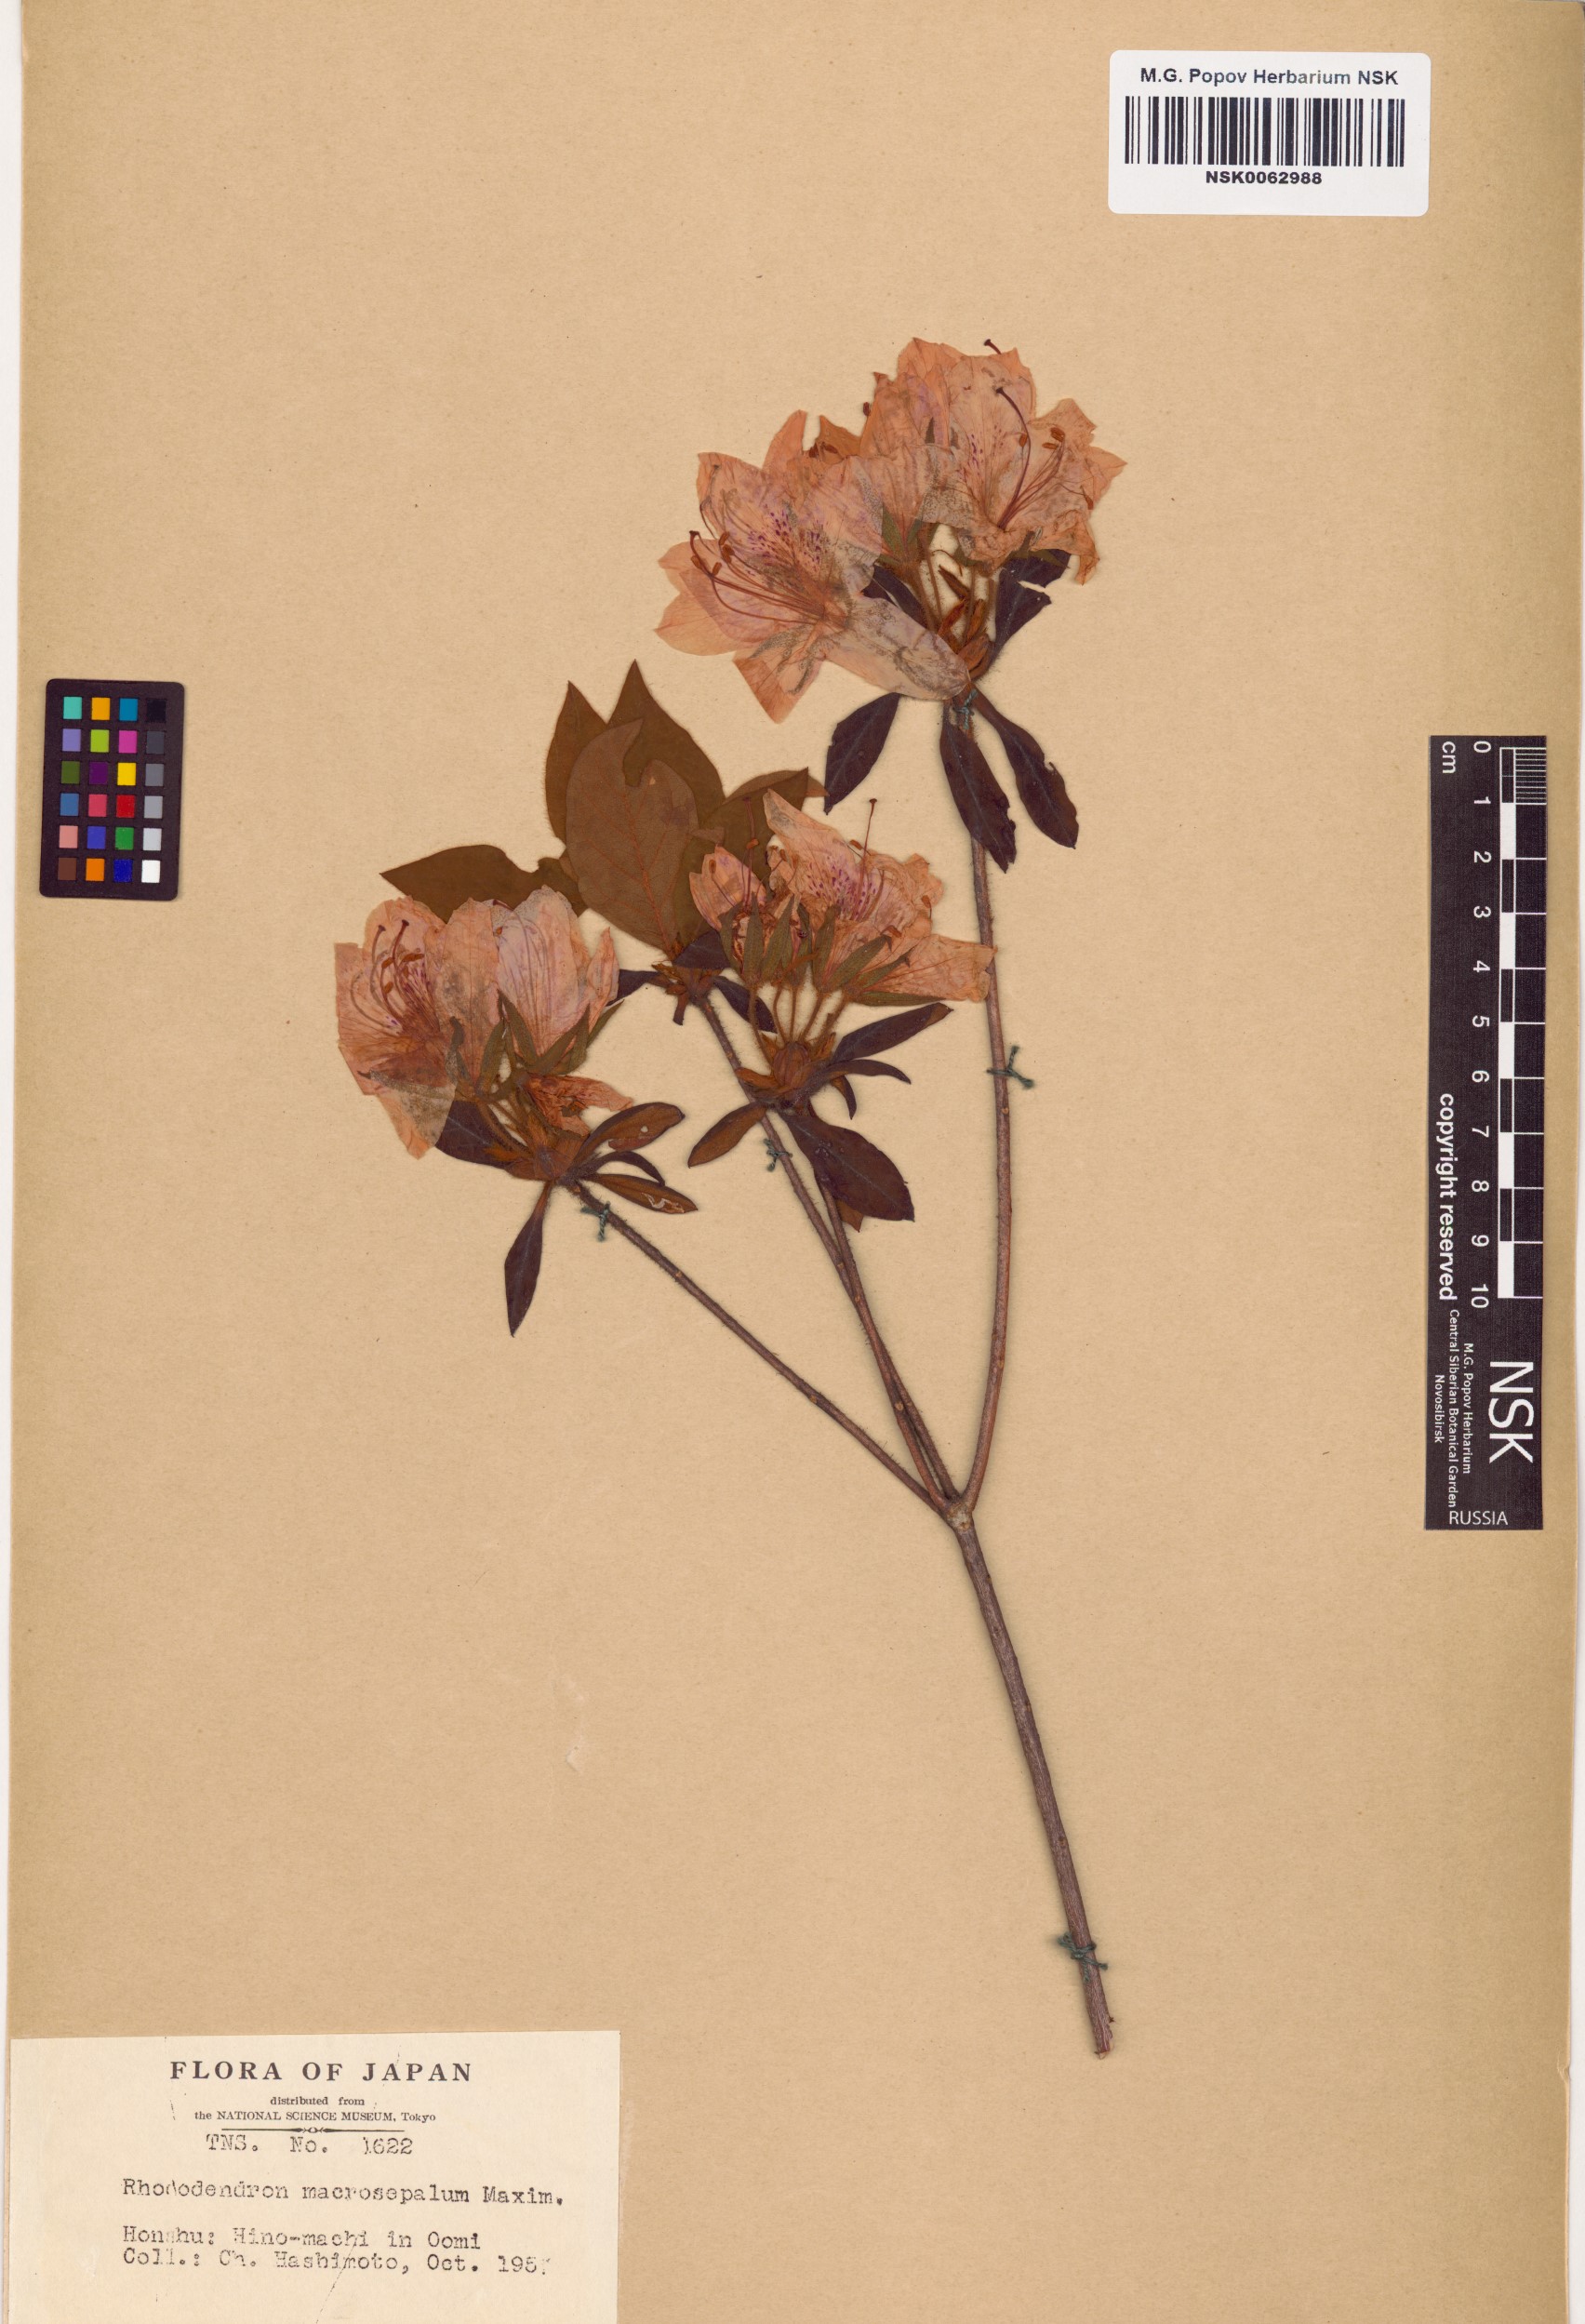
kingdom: Plantae
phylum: Tracheophyta
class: Magnoliopsida
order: Ericales
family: Ericaceae
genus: Rhododendron
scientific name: Rhododendron stenopetalum
